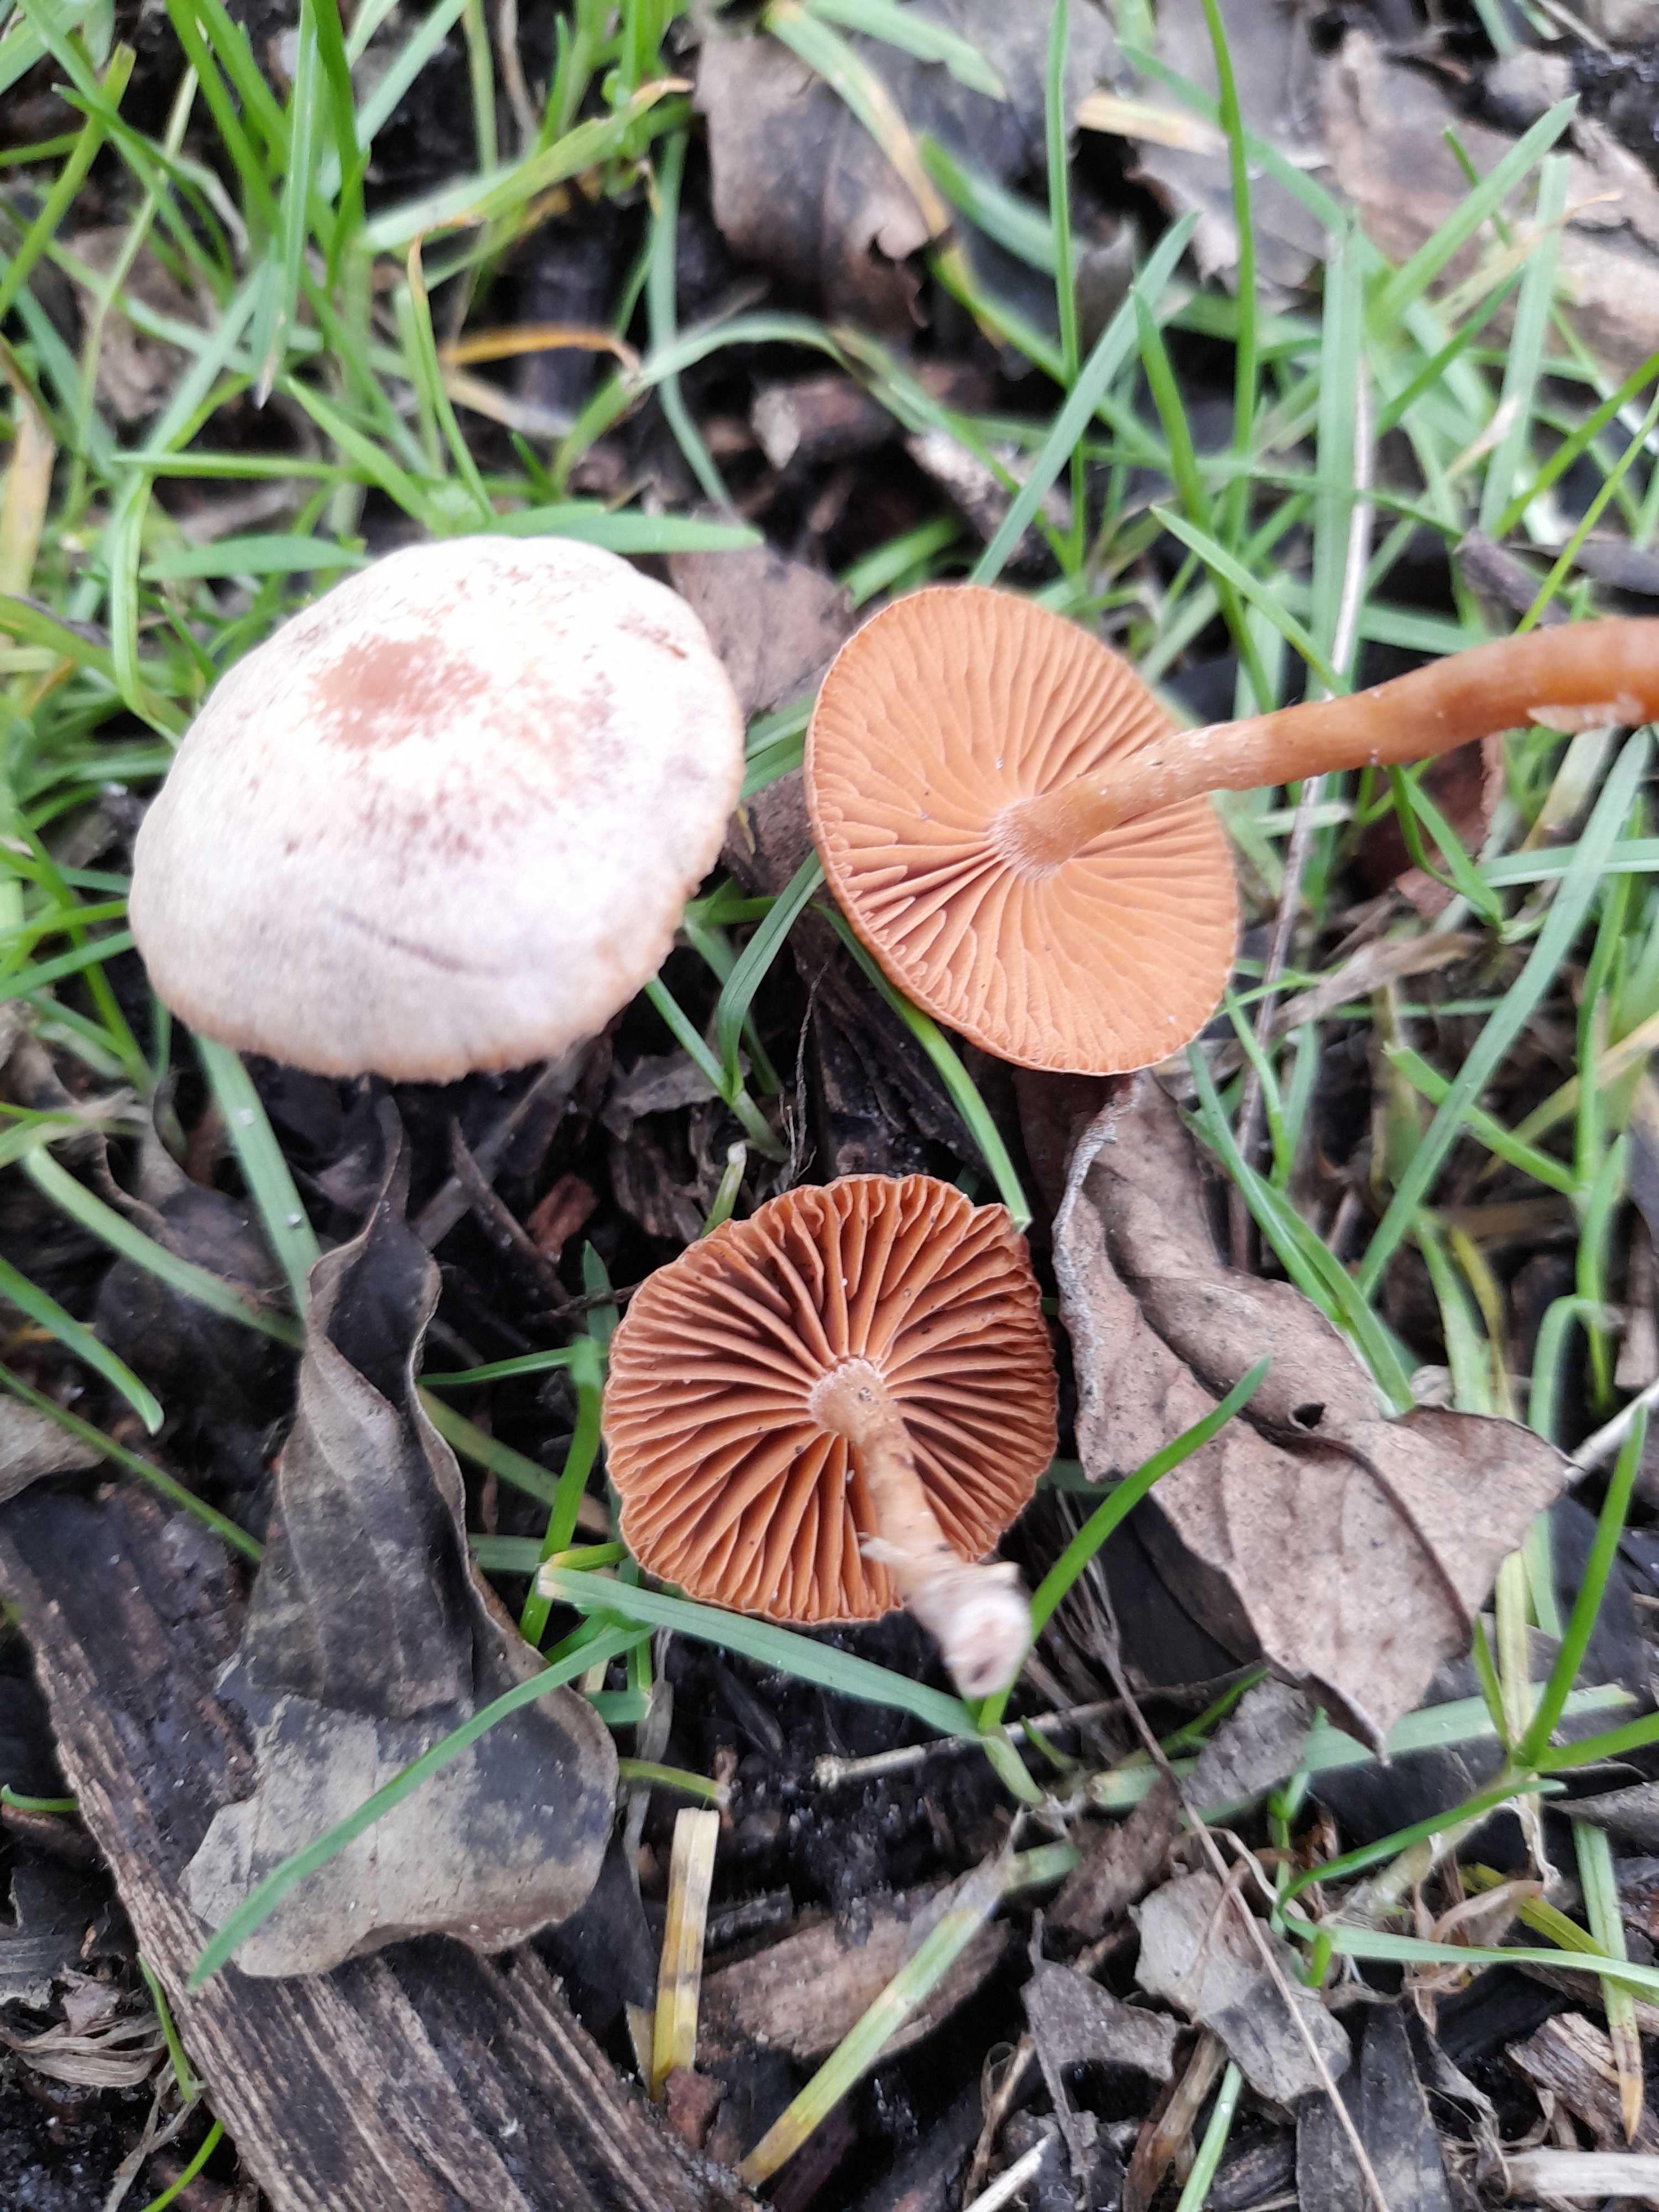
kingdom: Fungi
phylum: Basidiomycota
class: Agaricomycetes
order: Agaricales
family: Tubariaceae
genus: Tubaria
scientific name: Tubaria furfuracea
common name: kliddet fnughat
